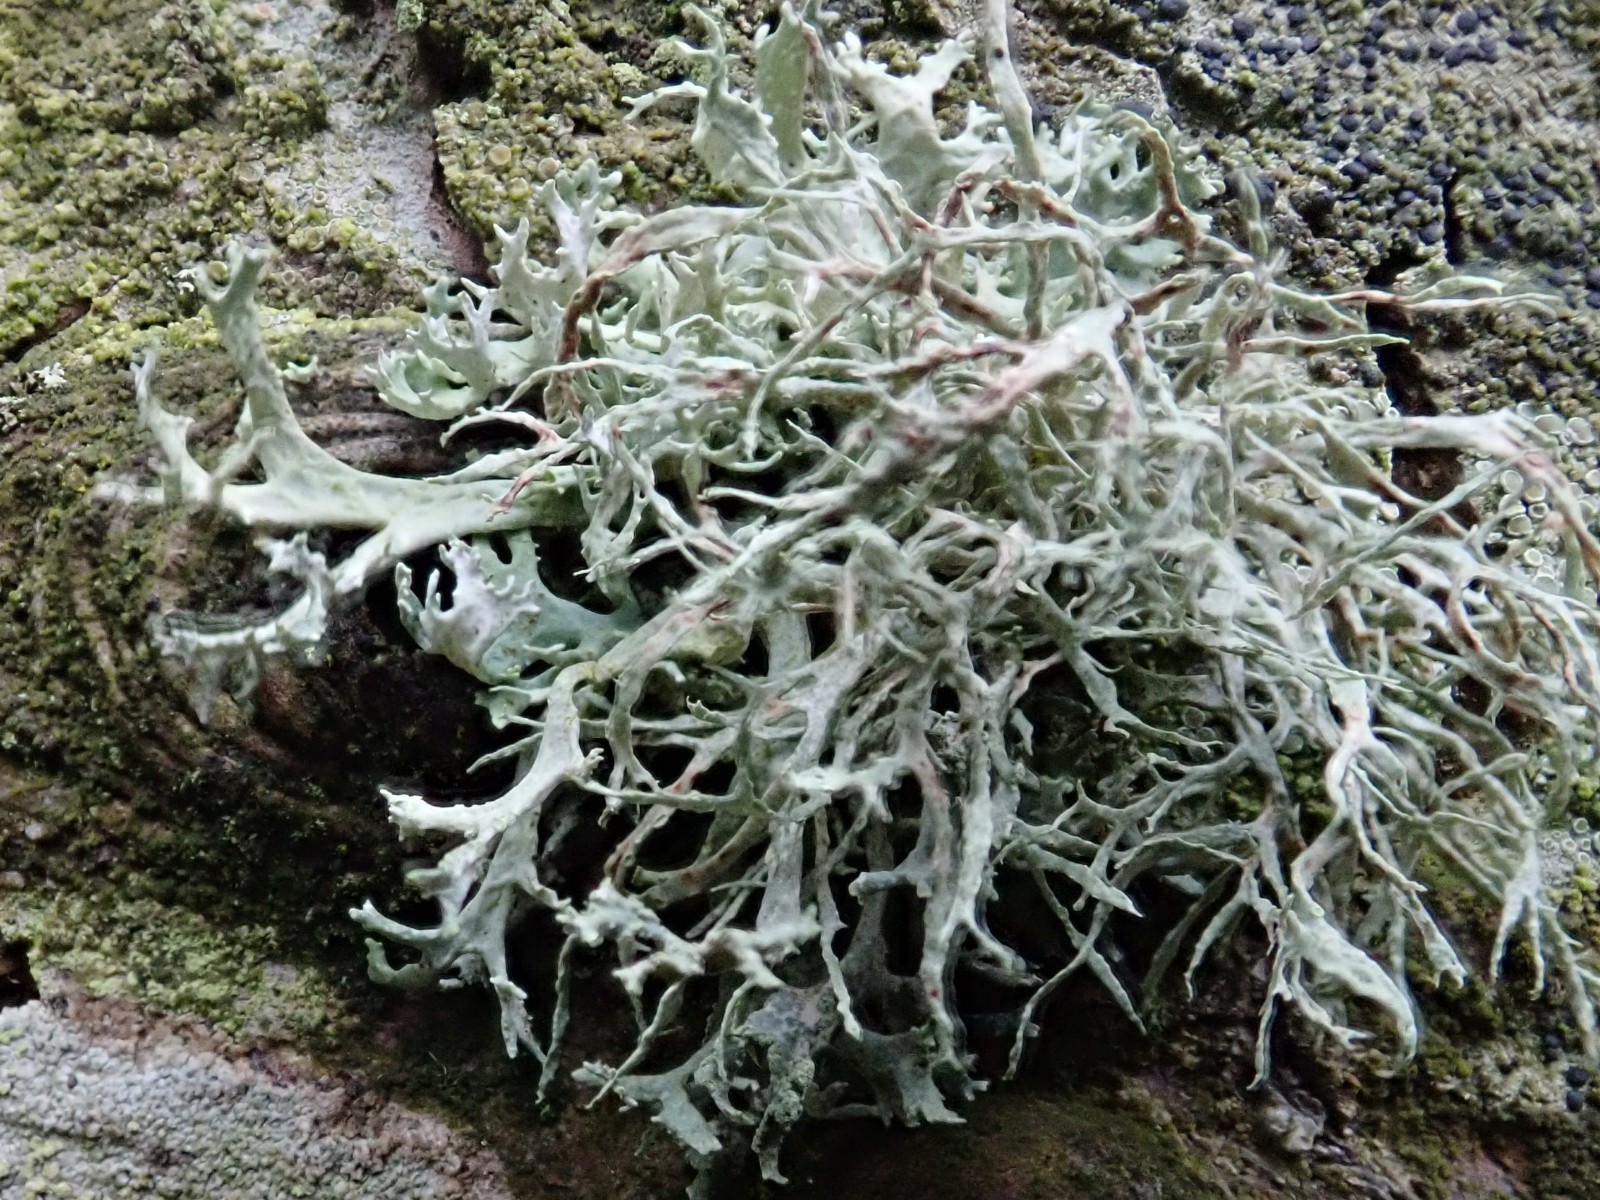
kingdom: Fungi
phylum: Ascomycota
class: Lecanoromycetes
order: Lecanorales
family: Parmeliaceae
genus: Evernia
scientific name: Evernia prunastri
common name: almindelig slåenlav
